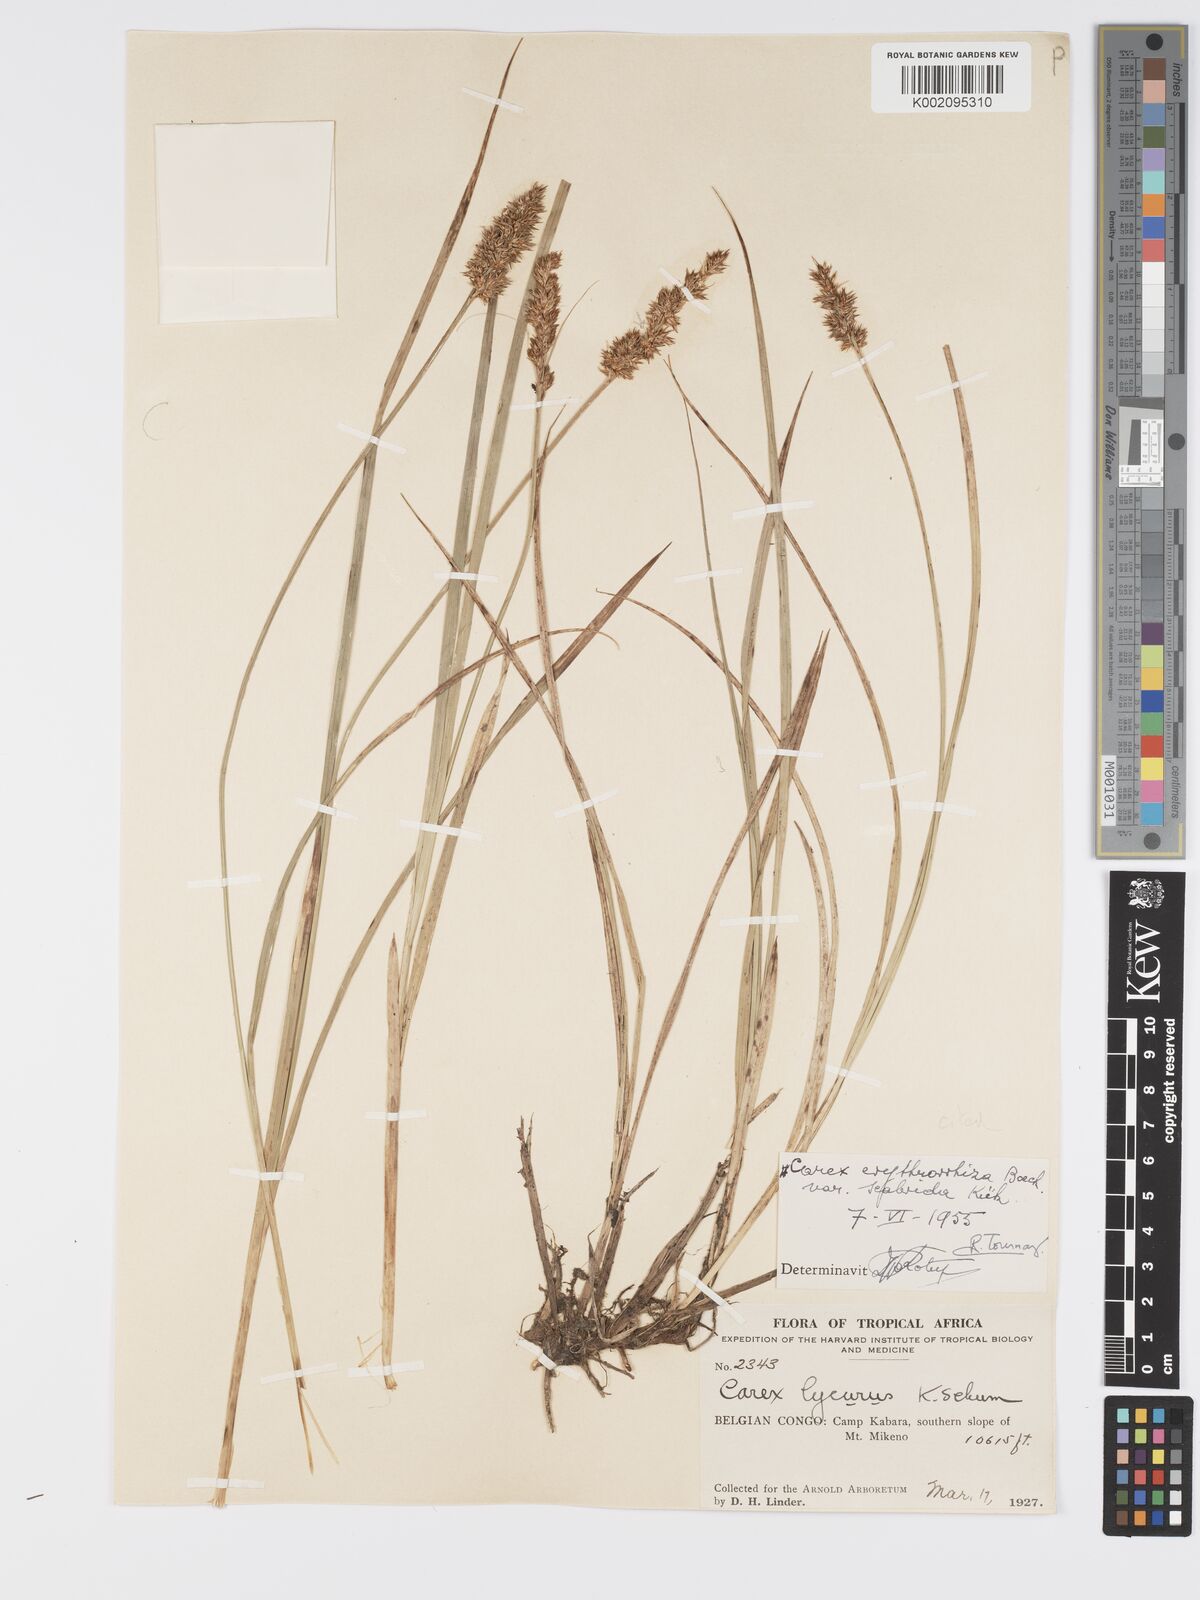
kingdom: Plantae
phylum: Tracheophyta
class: Liliopsida
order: Poales
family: Cyperaceae
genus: Carex
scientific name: Carex lycurus
